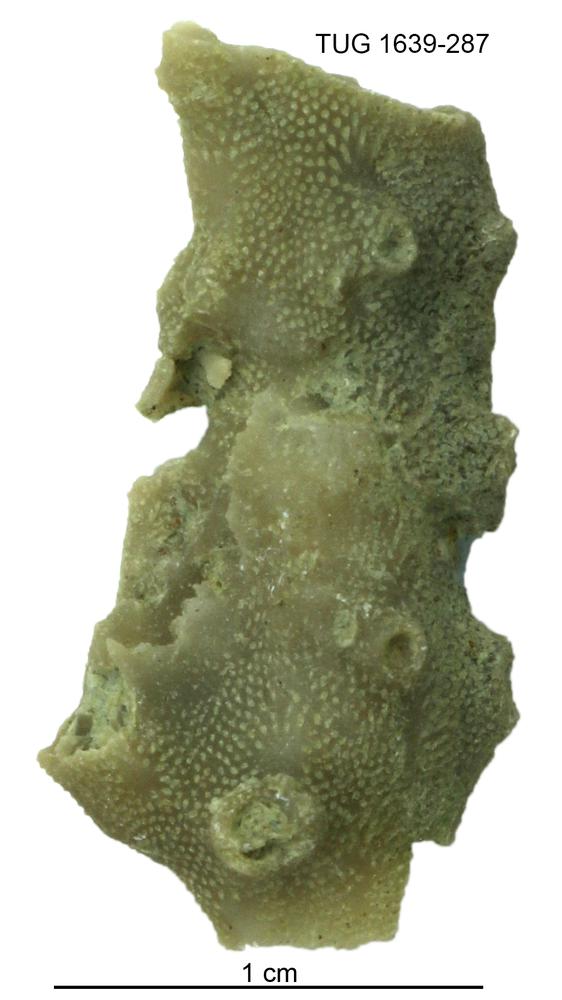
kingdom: Animalia
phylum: Bryozoa
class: Stenolaemata
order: Cystoporida
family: Fistuliporidae
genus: Fistulipora
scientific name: Fistulipora przhidolensis
